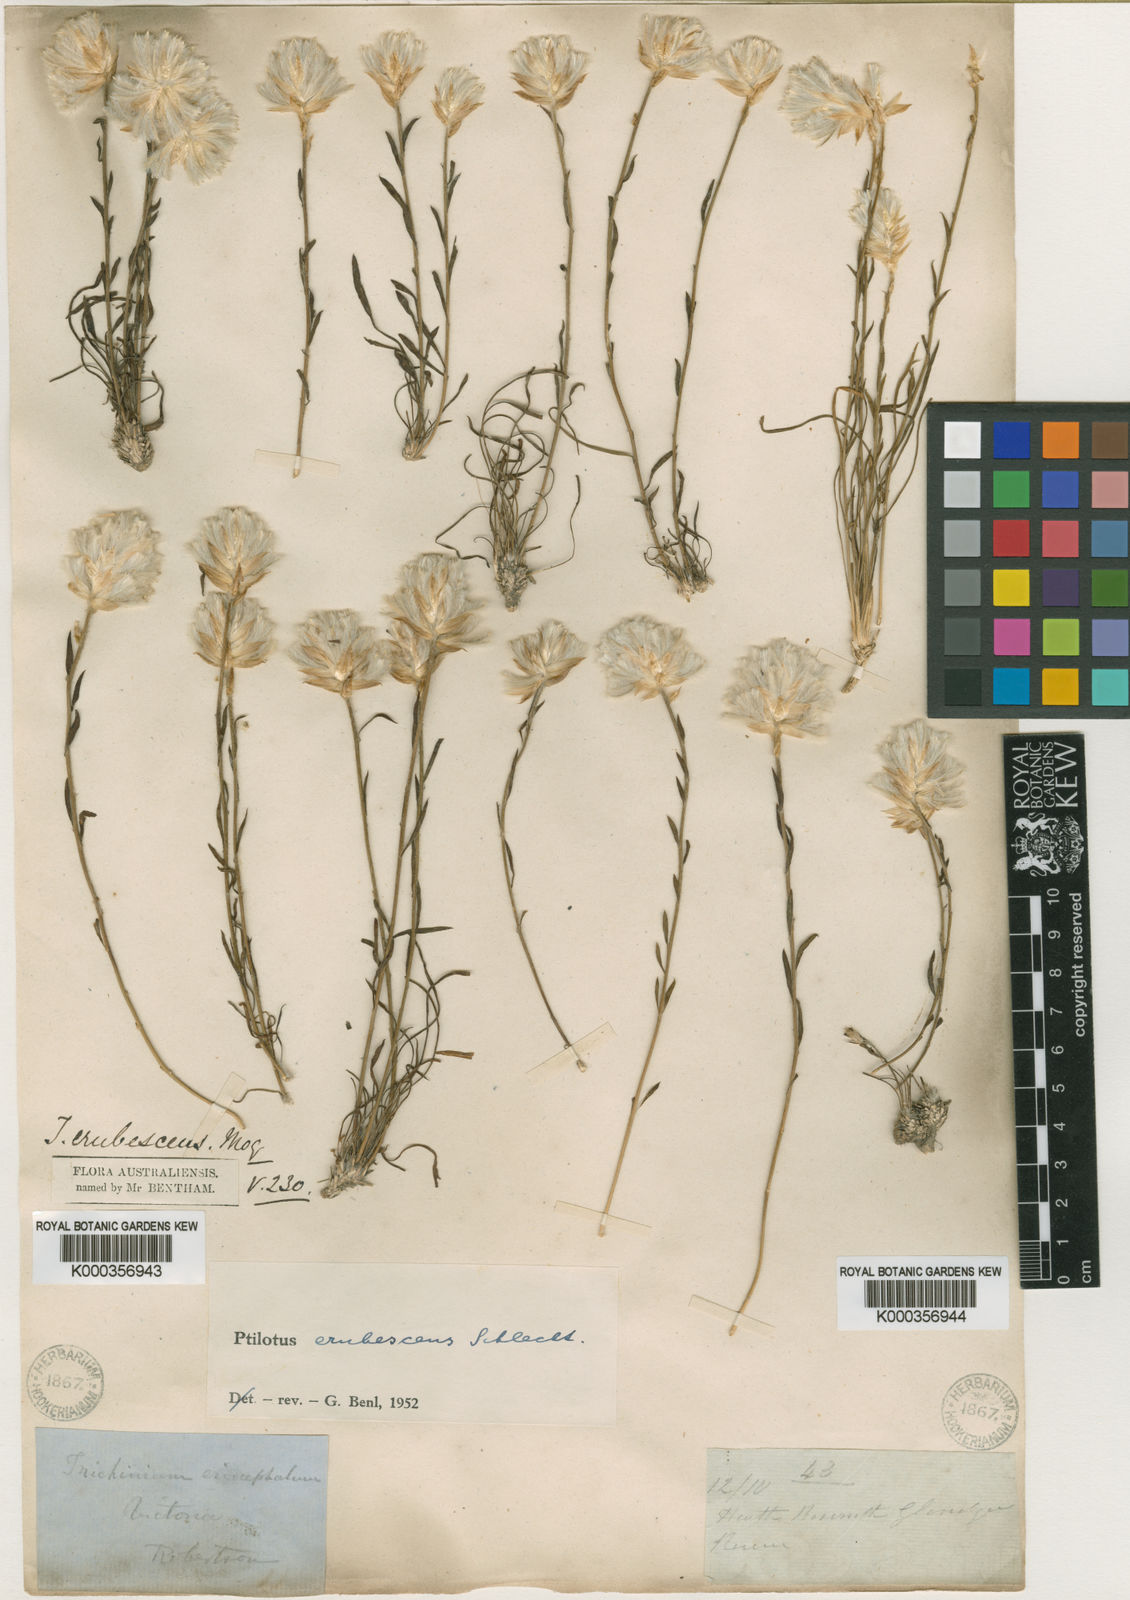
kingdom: Plantae
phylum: Tracheophyta
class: Magnoliopsida
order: Caryophyllales
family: Amaranthaceae
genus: Ptilotus
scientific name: Ptilotus erubescens
